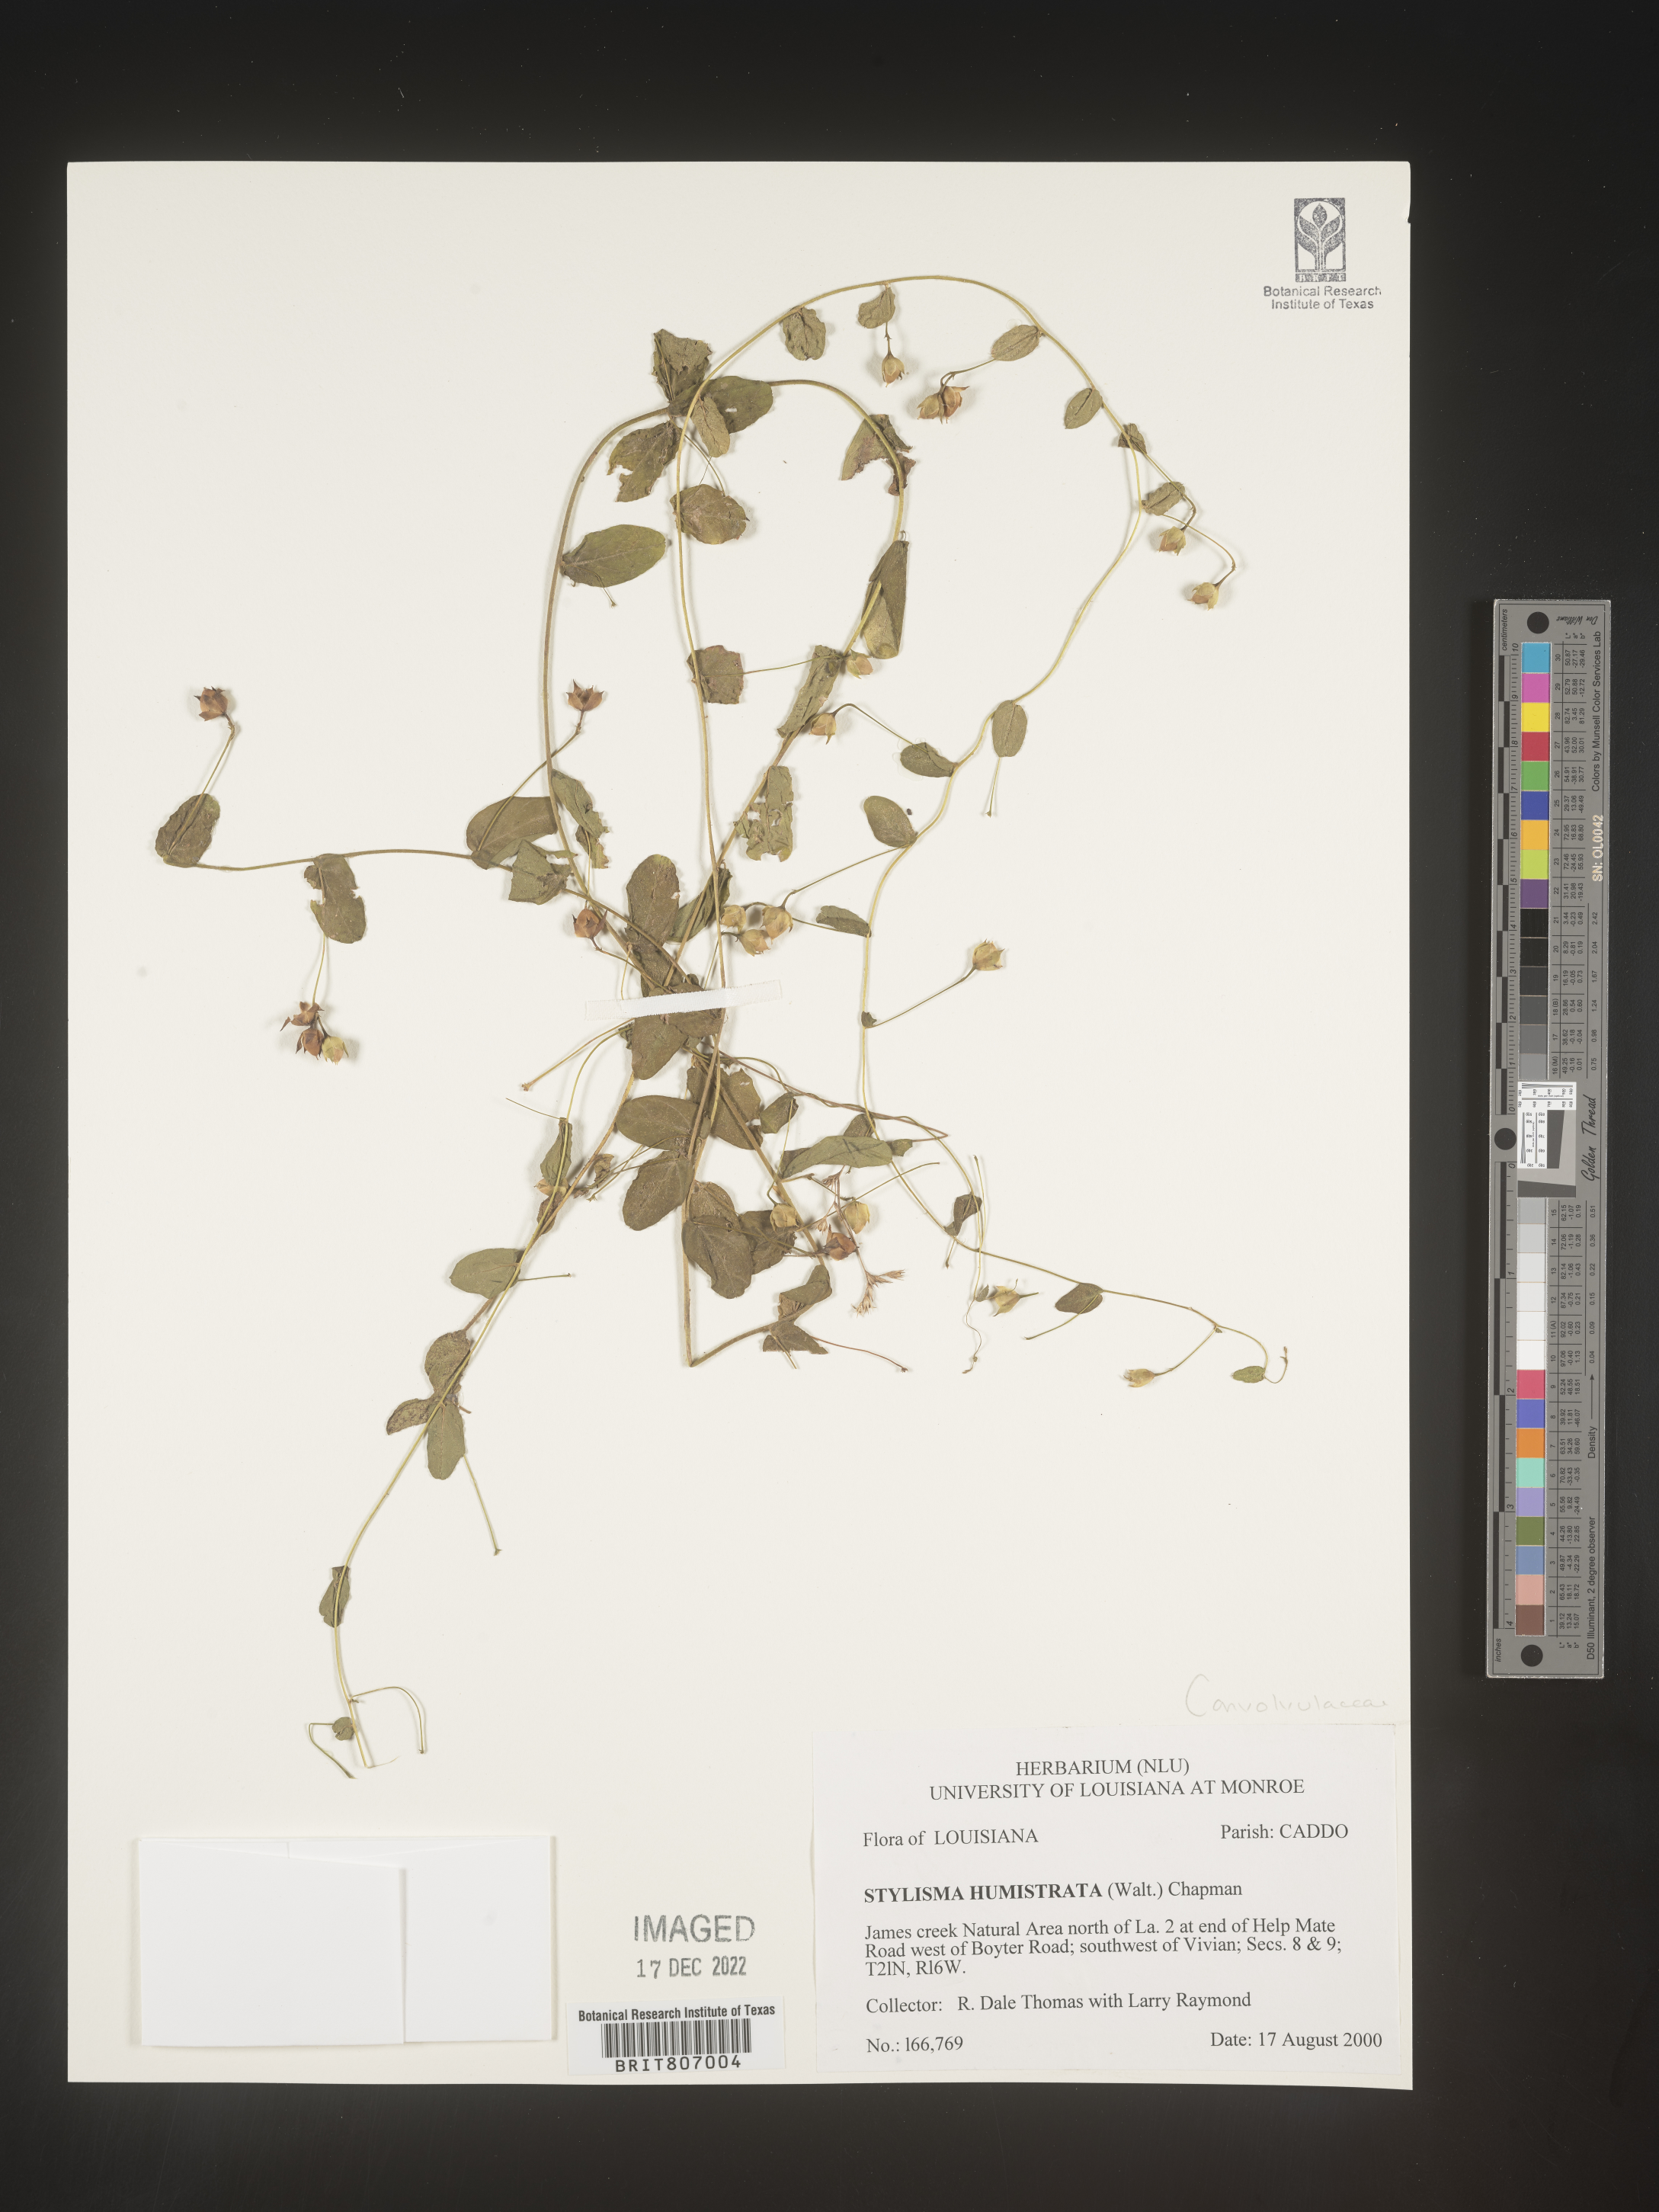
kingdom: Plantae
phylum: Tracheophyta
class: Magnoliopsida
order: Solanales
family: Convolvulaceae
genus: Stylisma
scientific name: Stylisma humistrata
